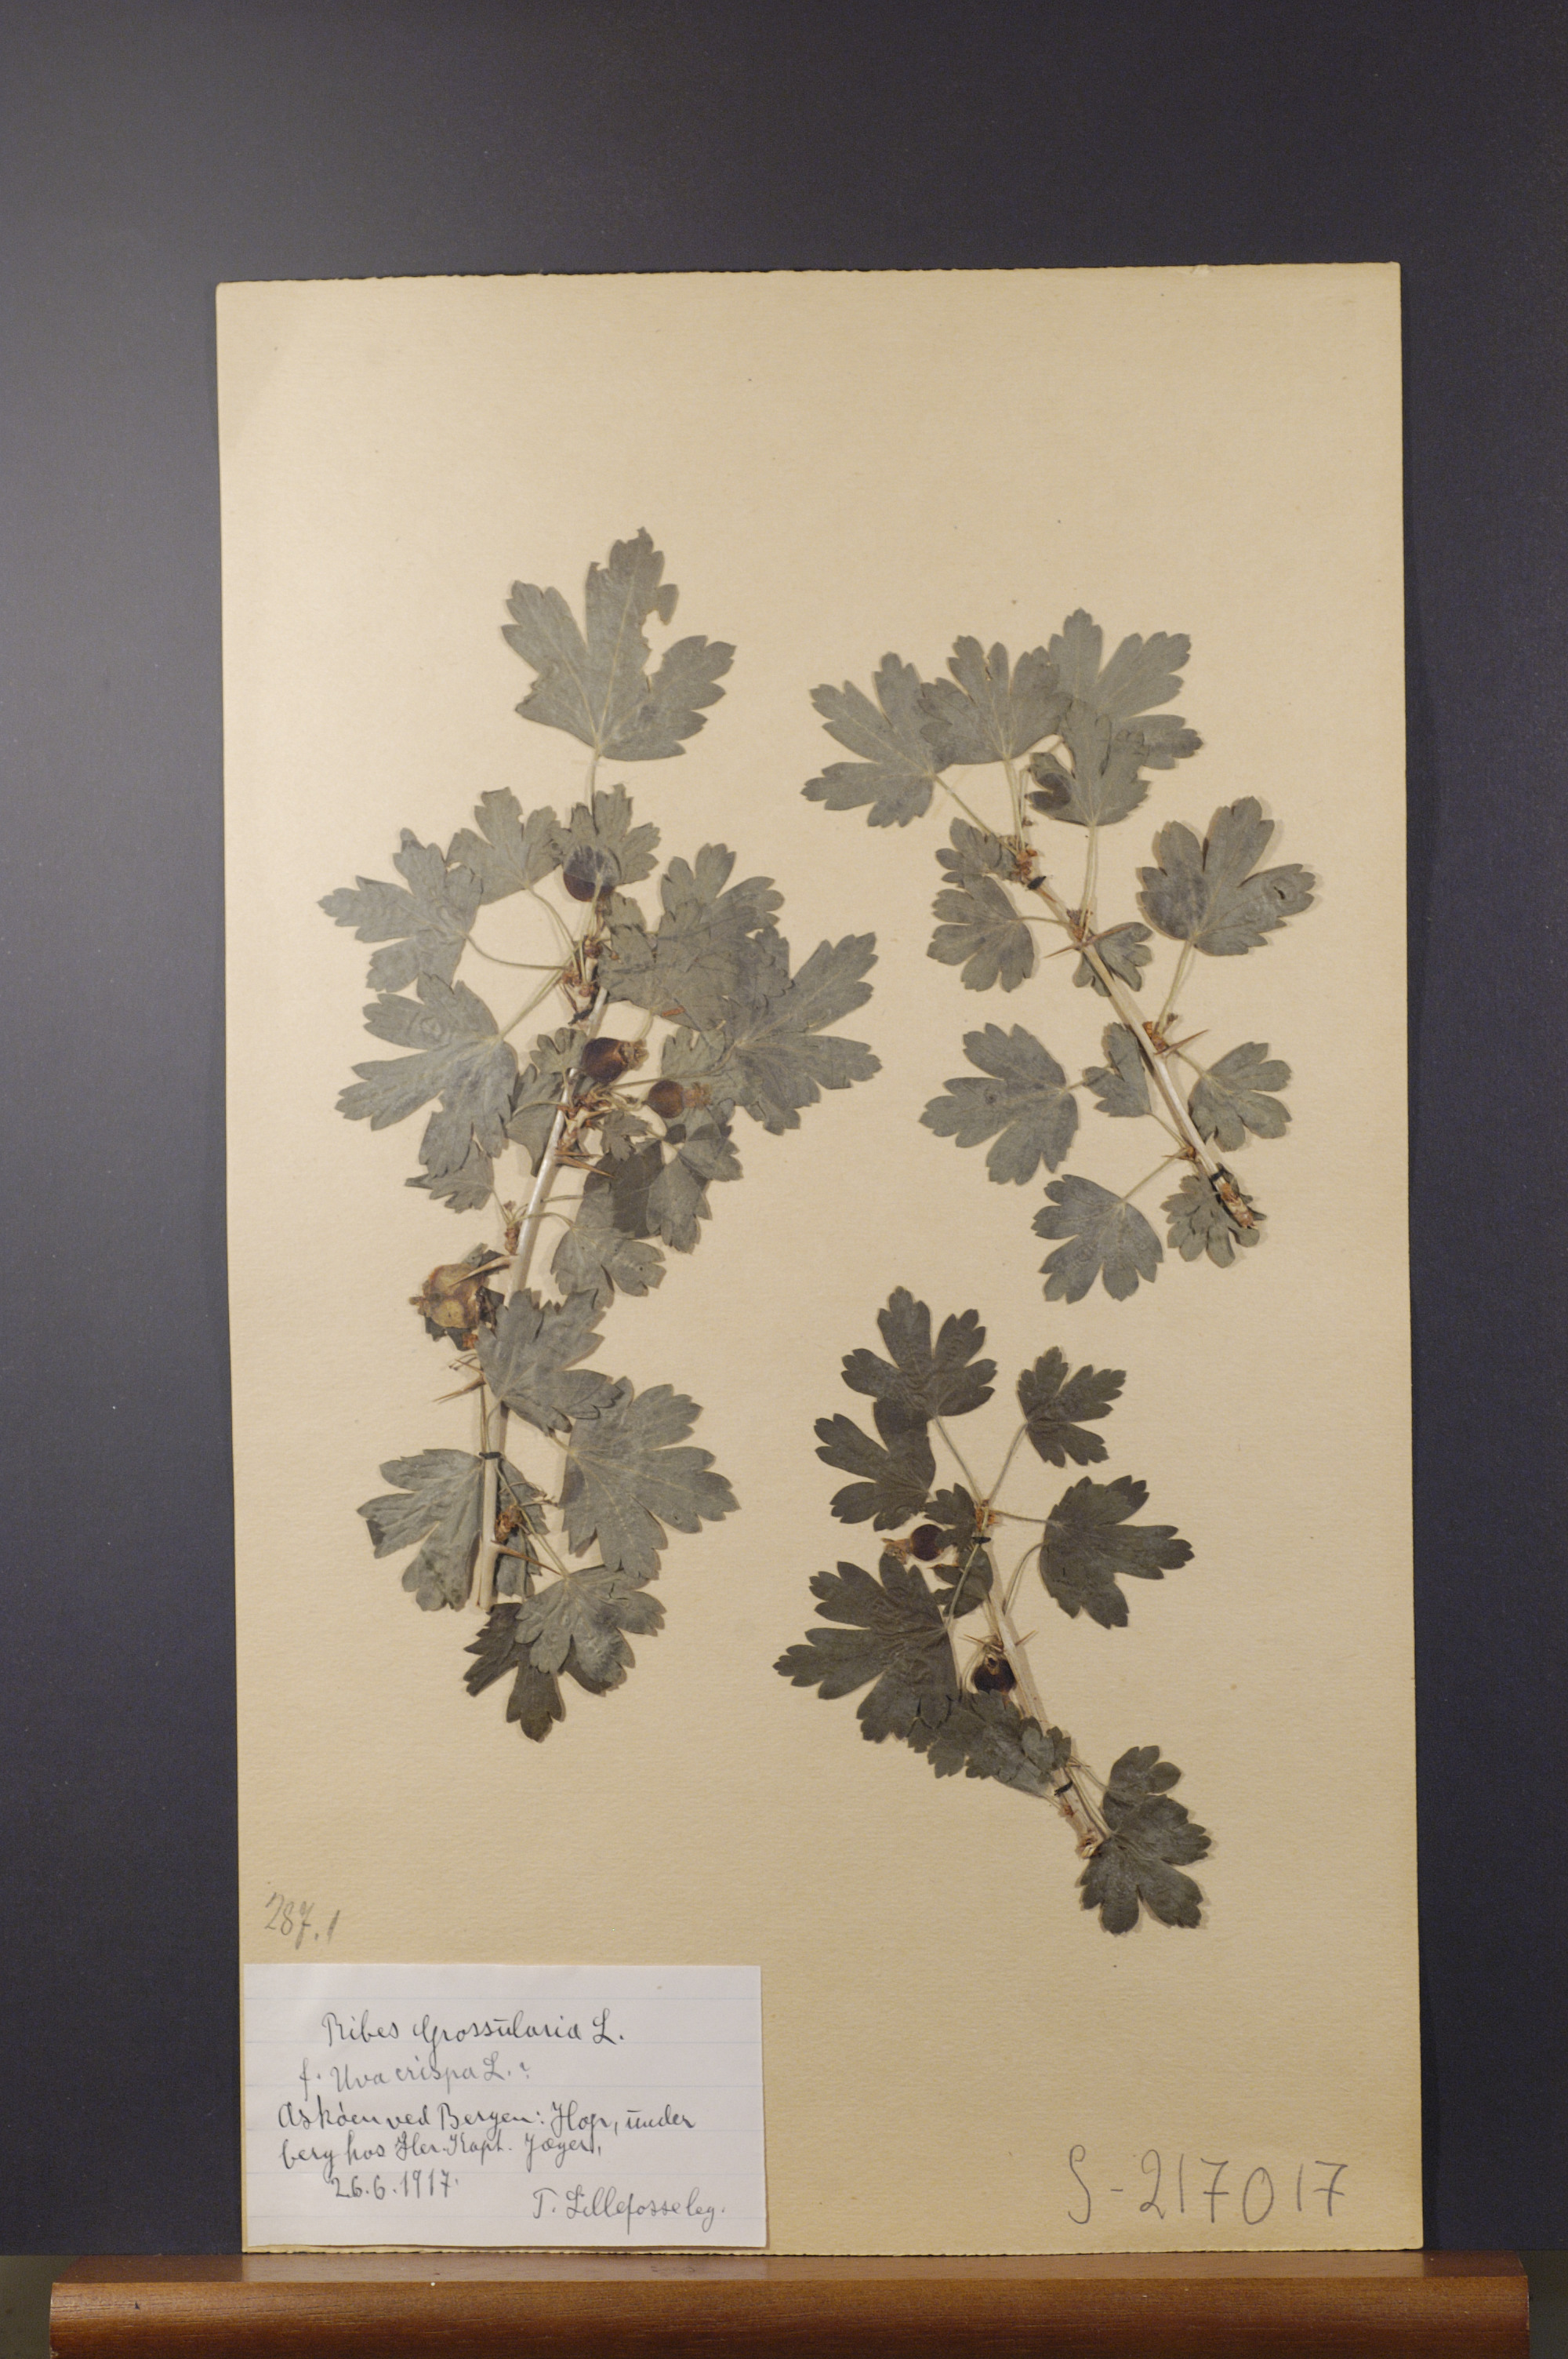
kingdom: Plantae
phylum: Tracheophyta
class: Magnoliopsida
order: Saxifragales
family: Grossulariaceae
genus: Ribes
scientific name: Ribes uva-crispa
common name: Gooseberry
